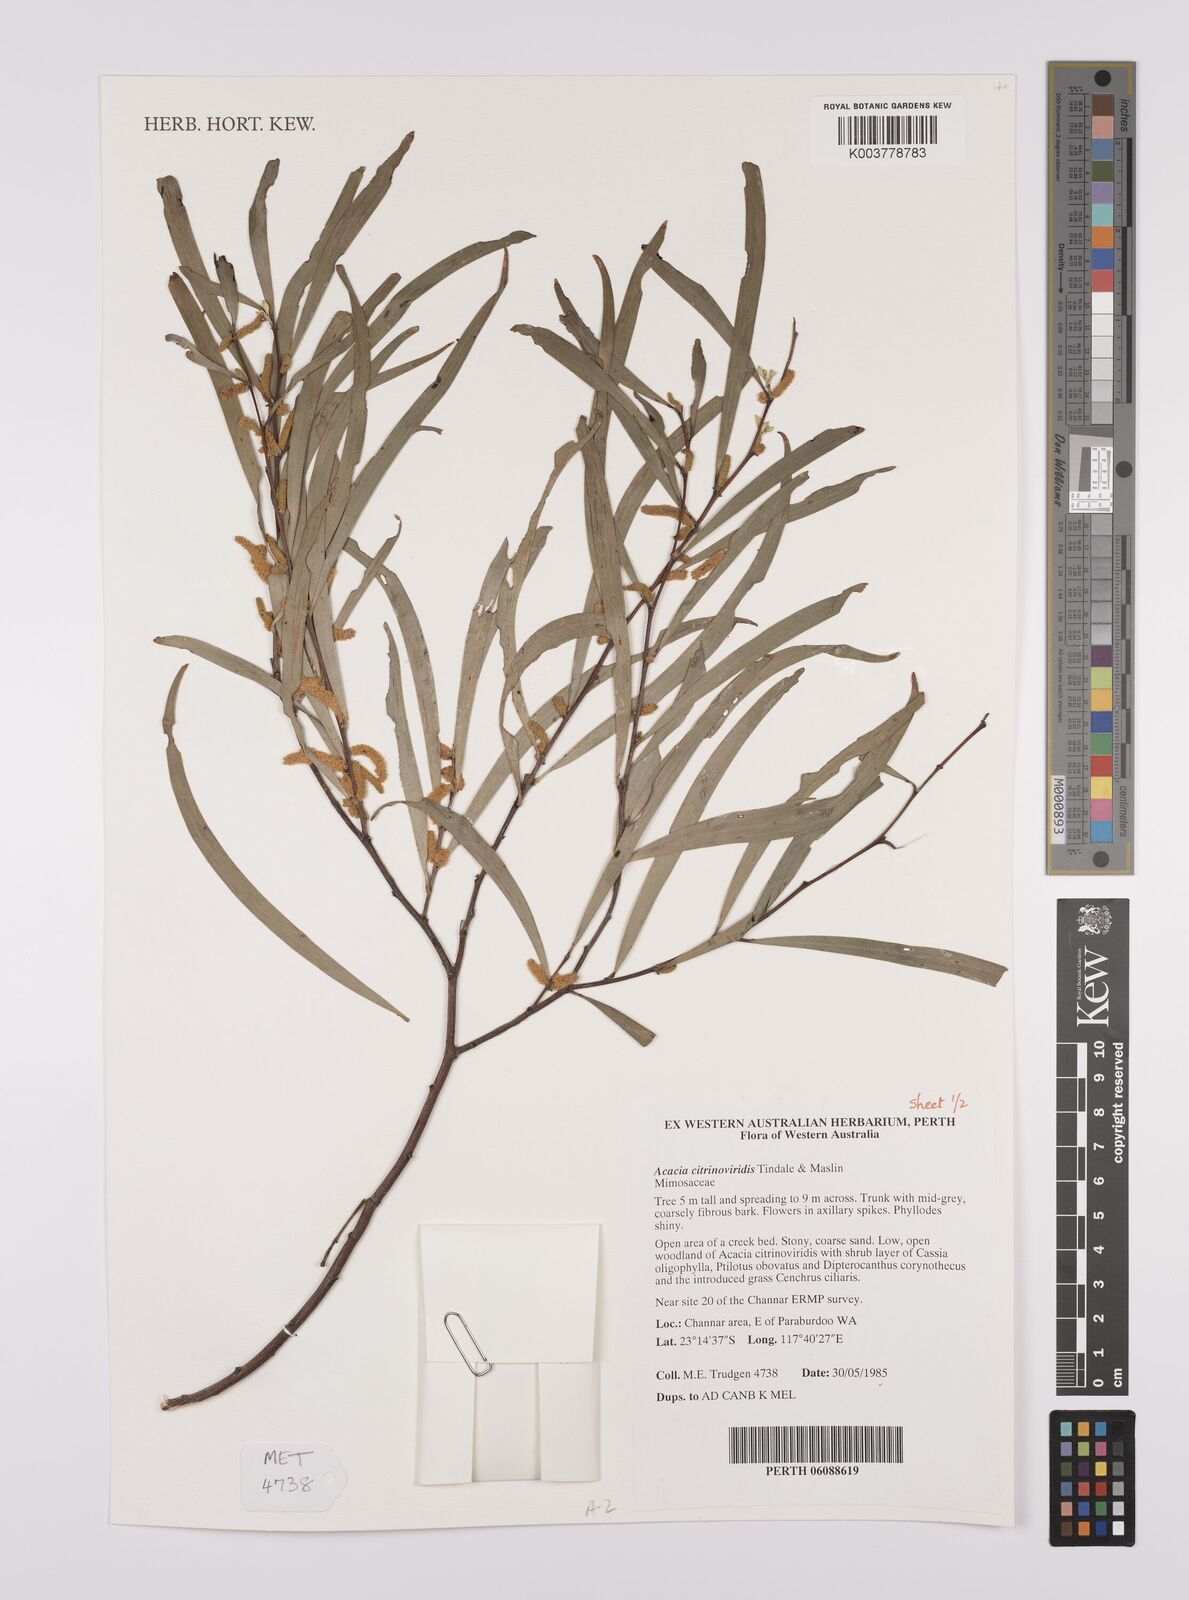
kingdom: Plantae
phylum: Tracheophyta
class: Magnoliopsida
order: Fabales
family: Fabaceae
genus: Acacia
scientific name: Acacia citrinoviridis
